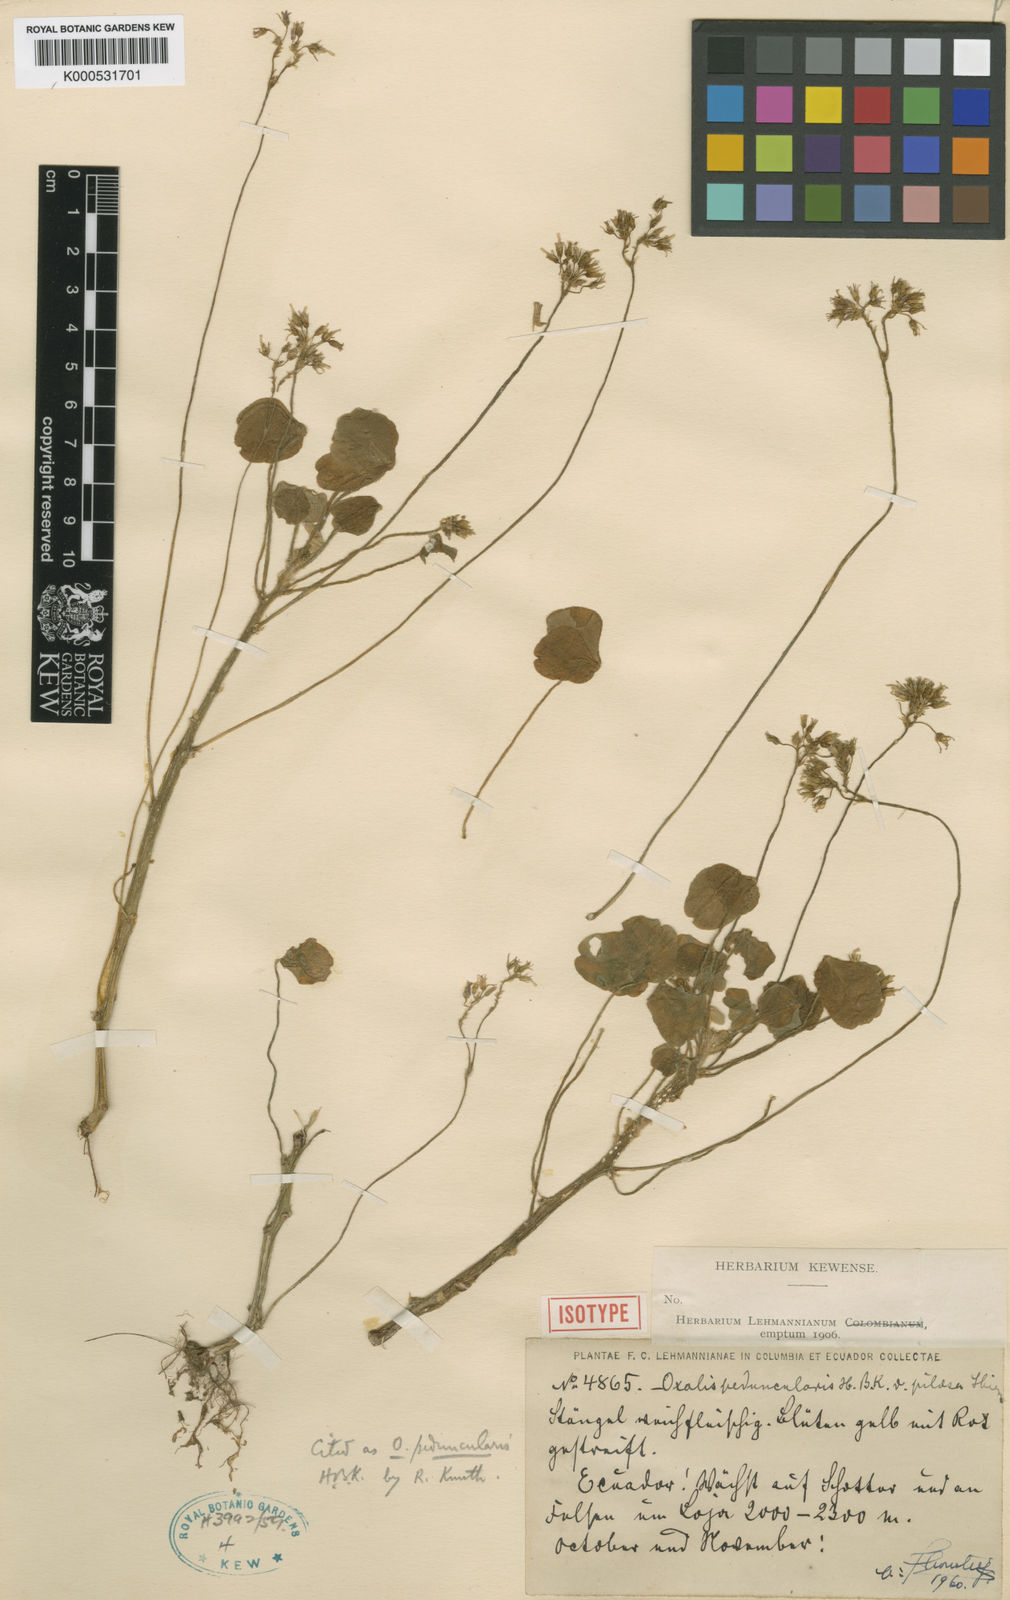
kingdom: Plantae
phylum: Tracheophyta
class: Magnoliopsida
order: Oxalidales
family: Oxalidaceae
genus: Oxalis
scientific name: Oxalis peduncularis
